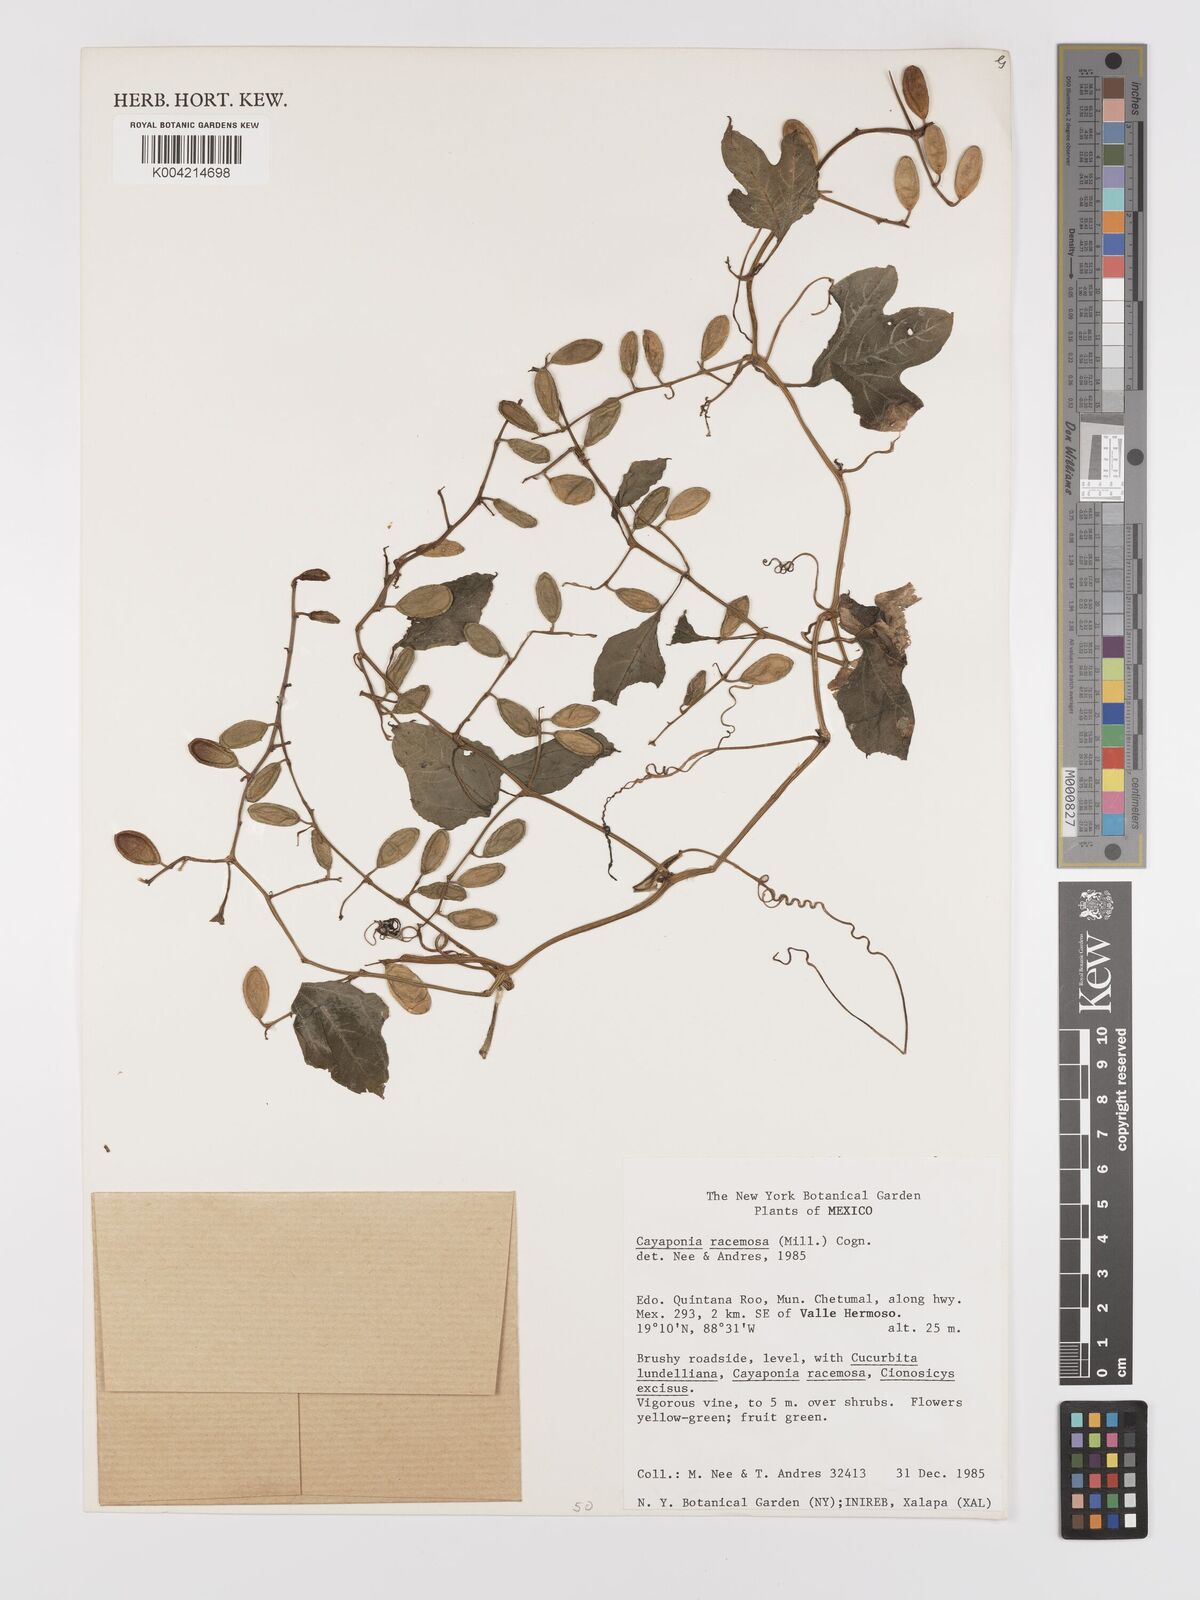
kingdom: Plantae
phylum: Tracheophyta
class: Magnoliopsida
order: Cucurbitales
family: Cucurbitaceae
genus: Cayaponia
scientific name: Cayaponia racemosa
